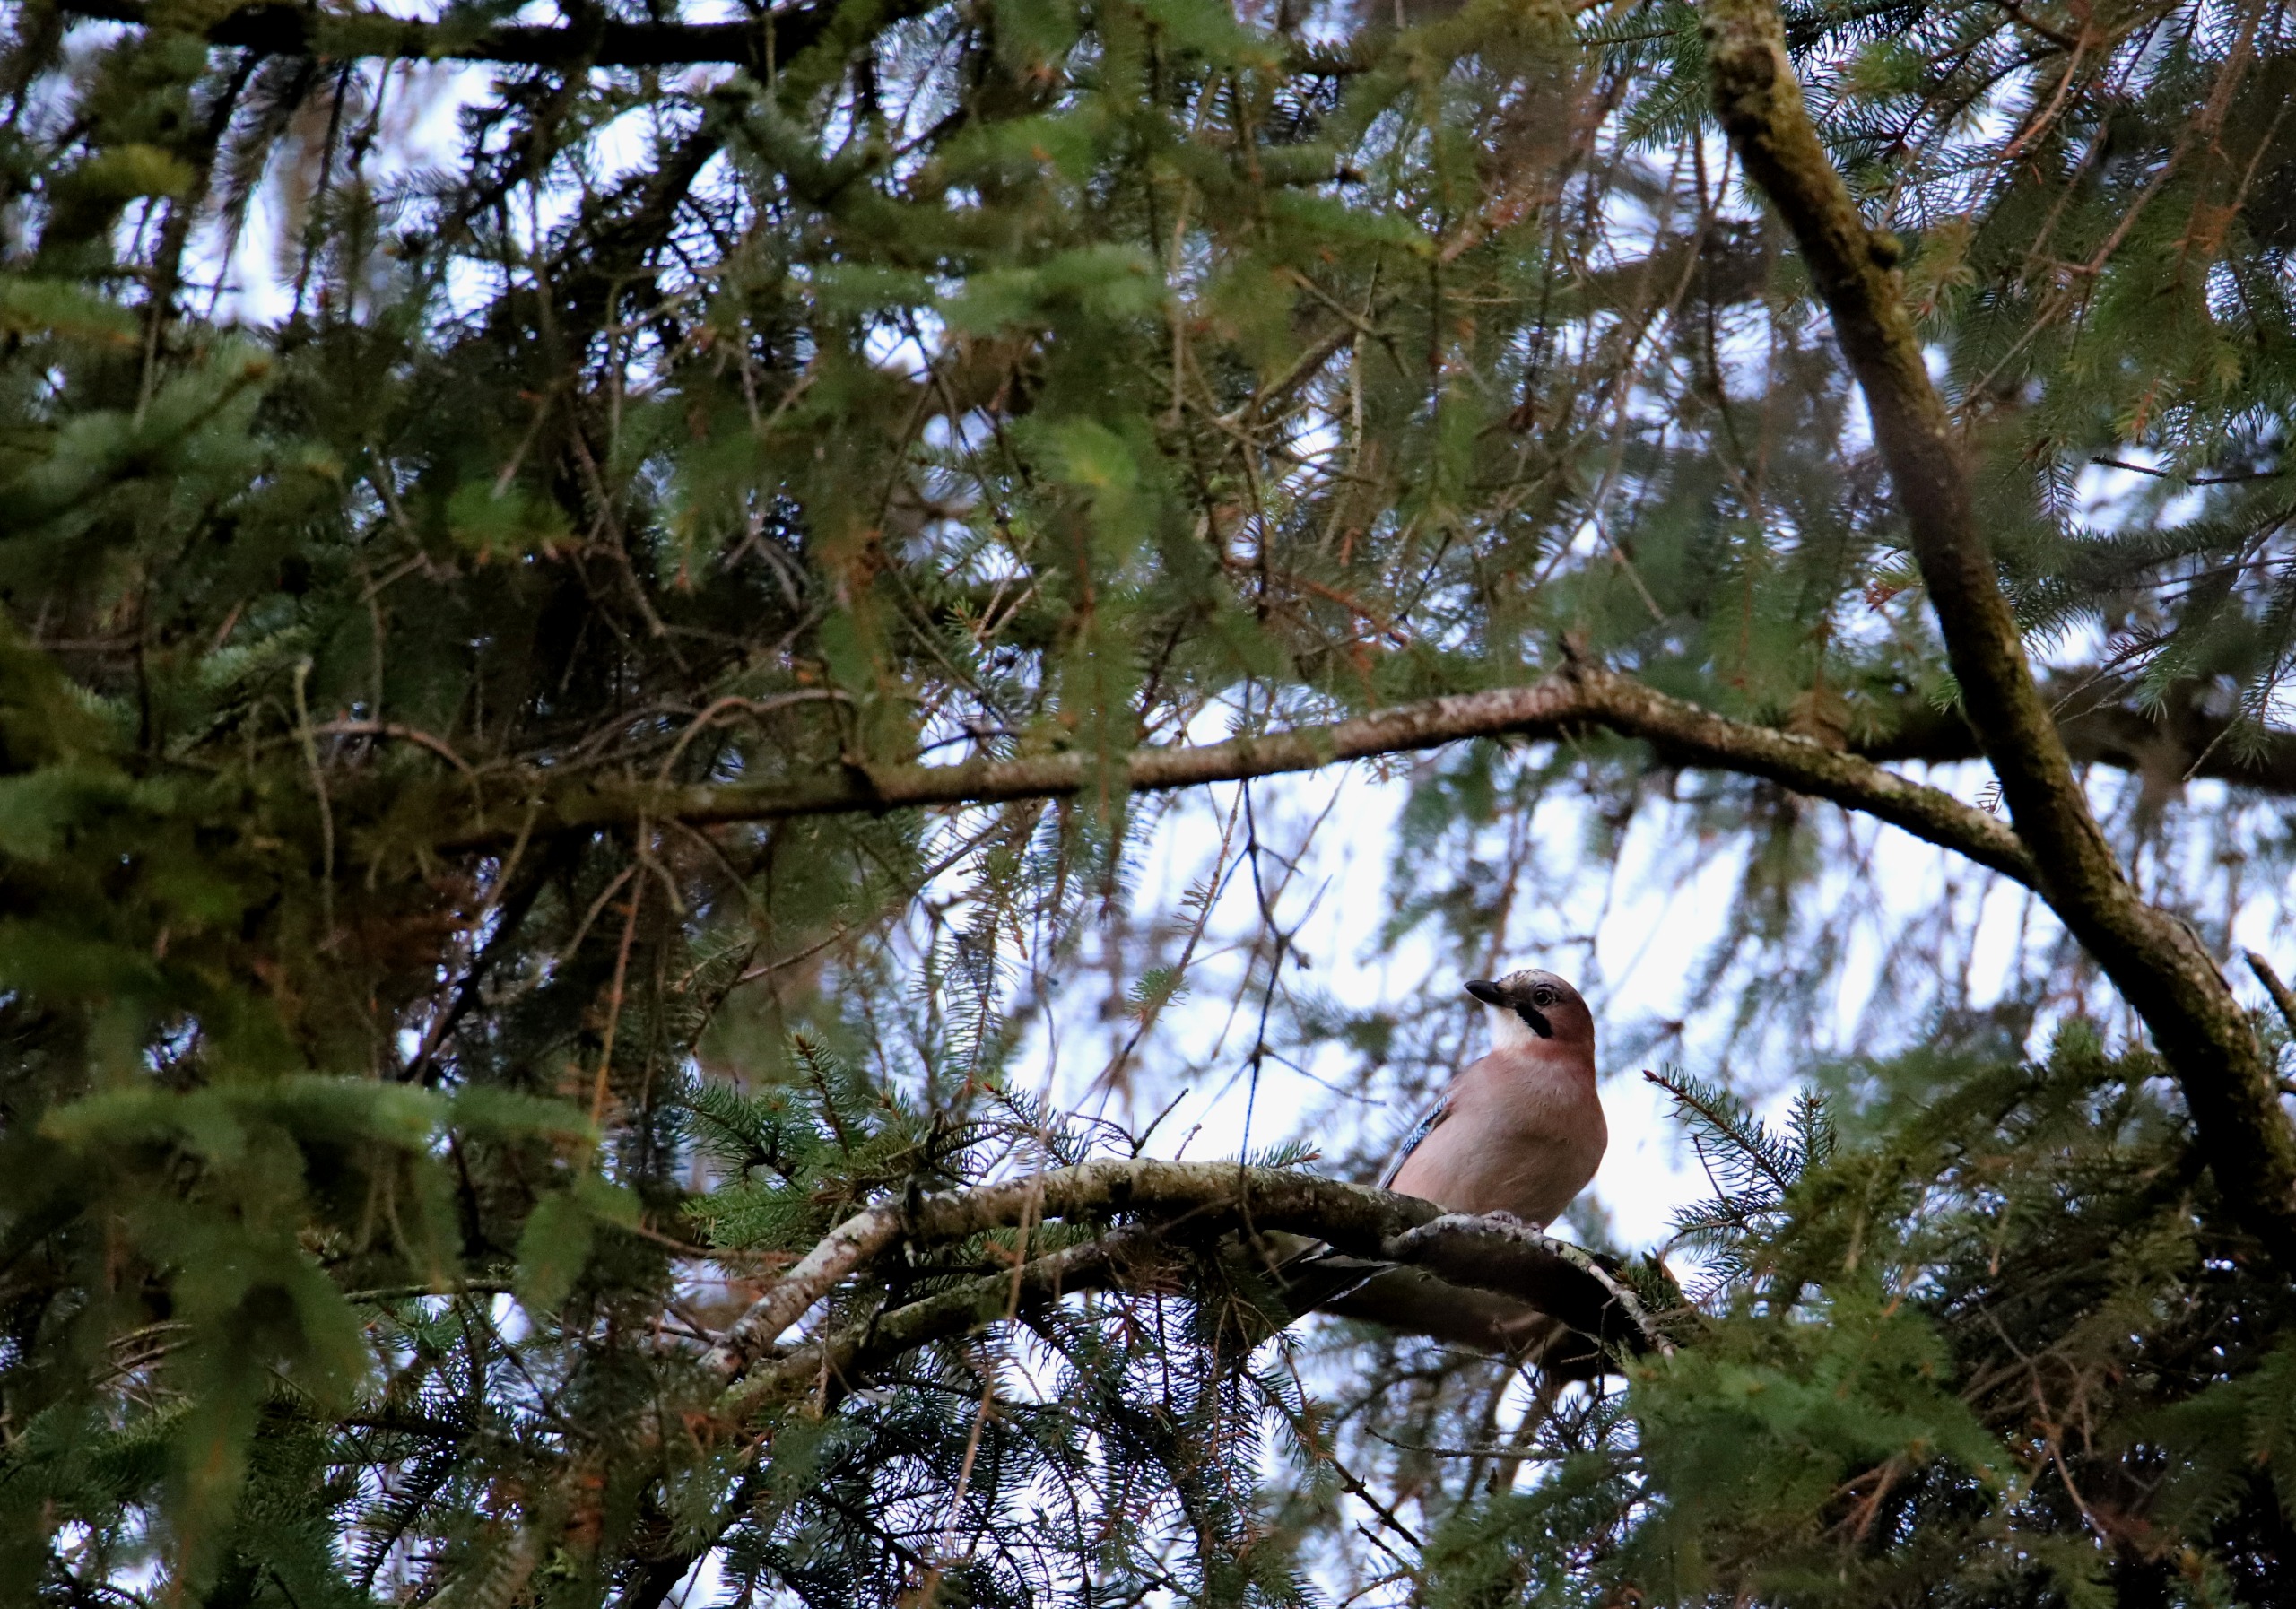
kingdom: Animalia
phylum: Chordata
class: Aves
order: Passeriformes
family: Corvidae
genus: Garrulus
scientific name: Garrulus glandarius
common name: Skovskade
